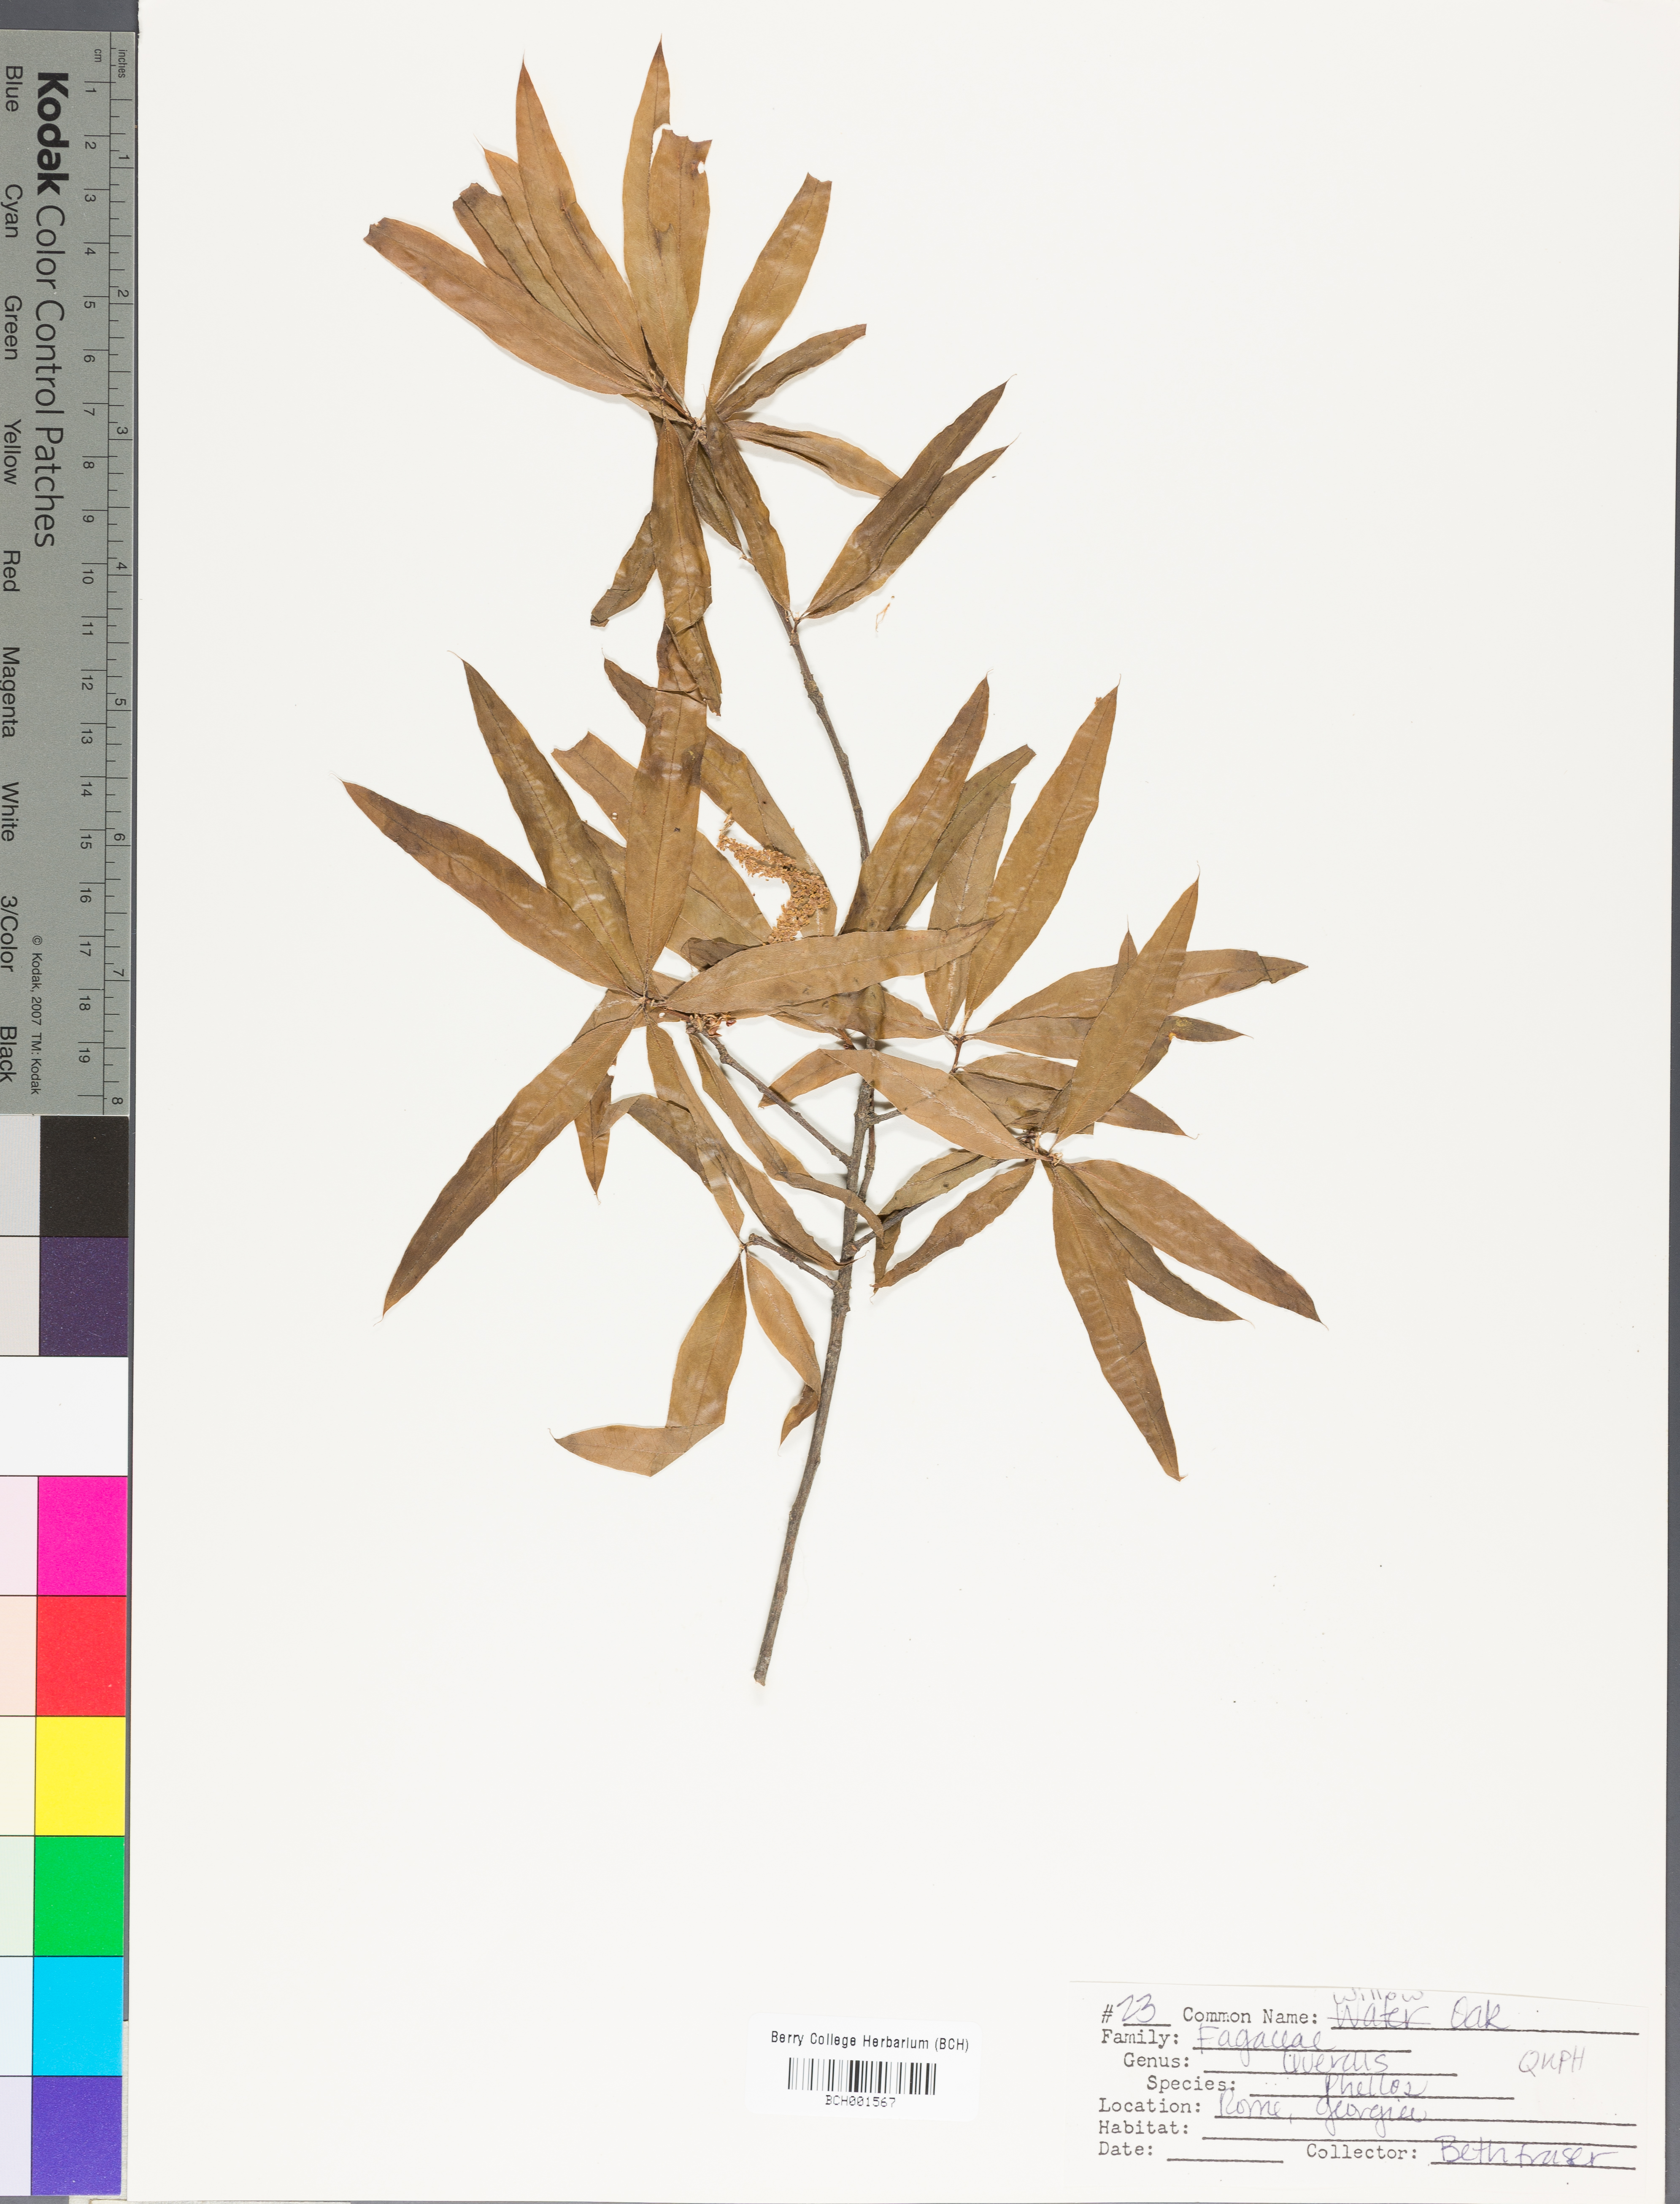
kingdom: Plantae
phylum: Tracheophyta
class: Magnoliopsida
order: Fagales
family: Fagaceae
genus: Quercus
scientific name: Quercus phellos
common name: Willow oak
